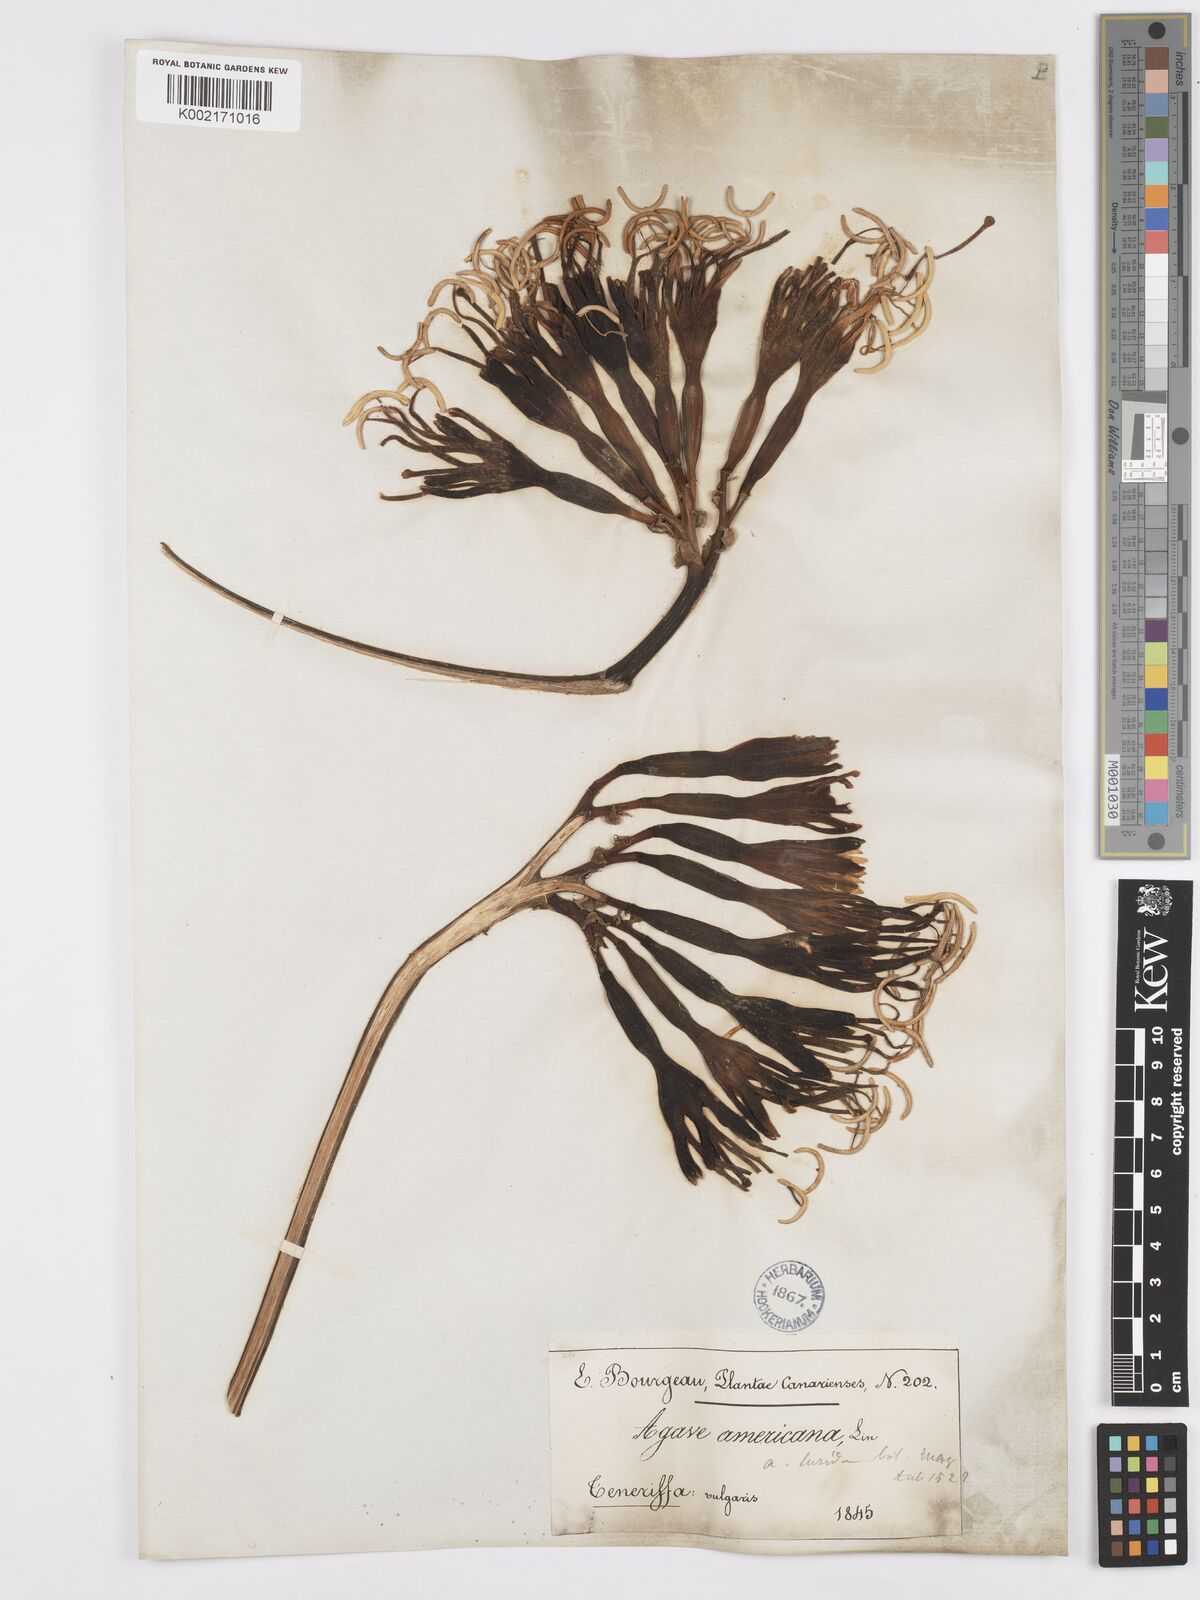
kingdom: Plantae
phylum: Tracheophyta
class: Liliopsida
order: Asparagales
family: Asparagaceae
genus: Agave
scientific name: Agave americana
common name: Centuryplant
